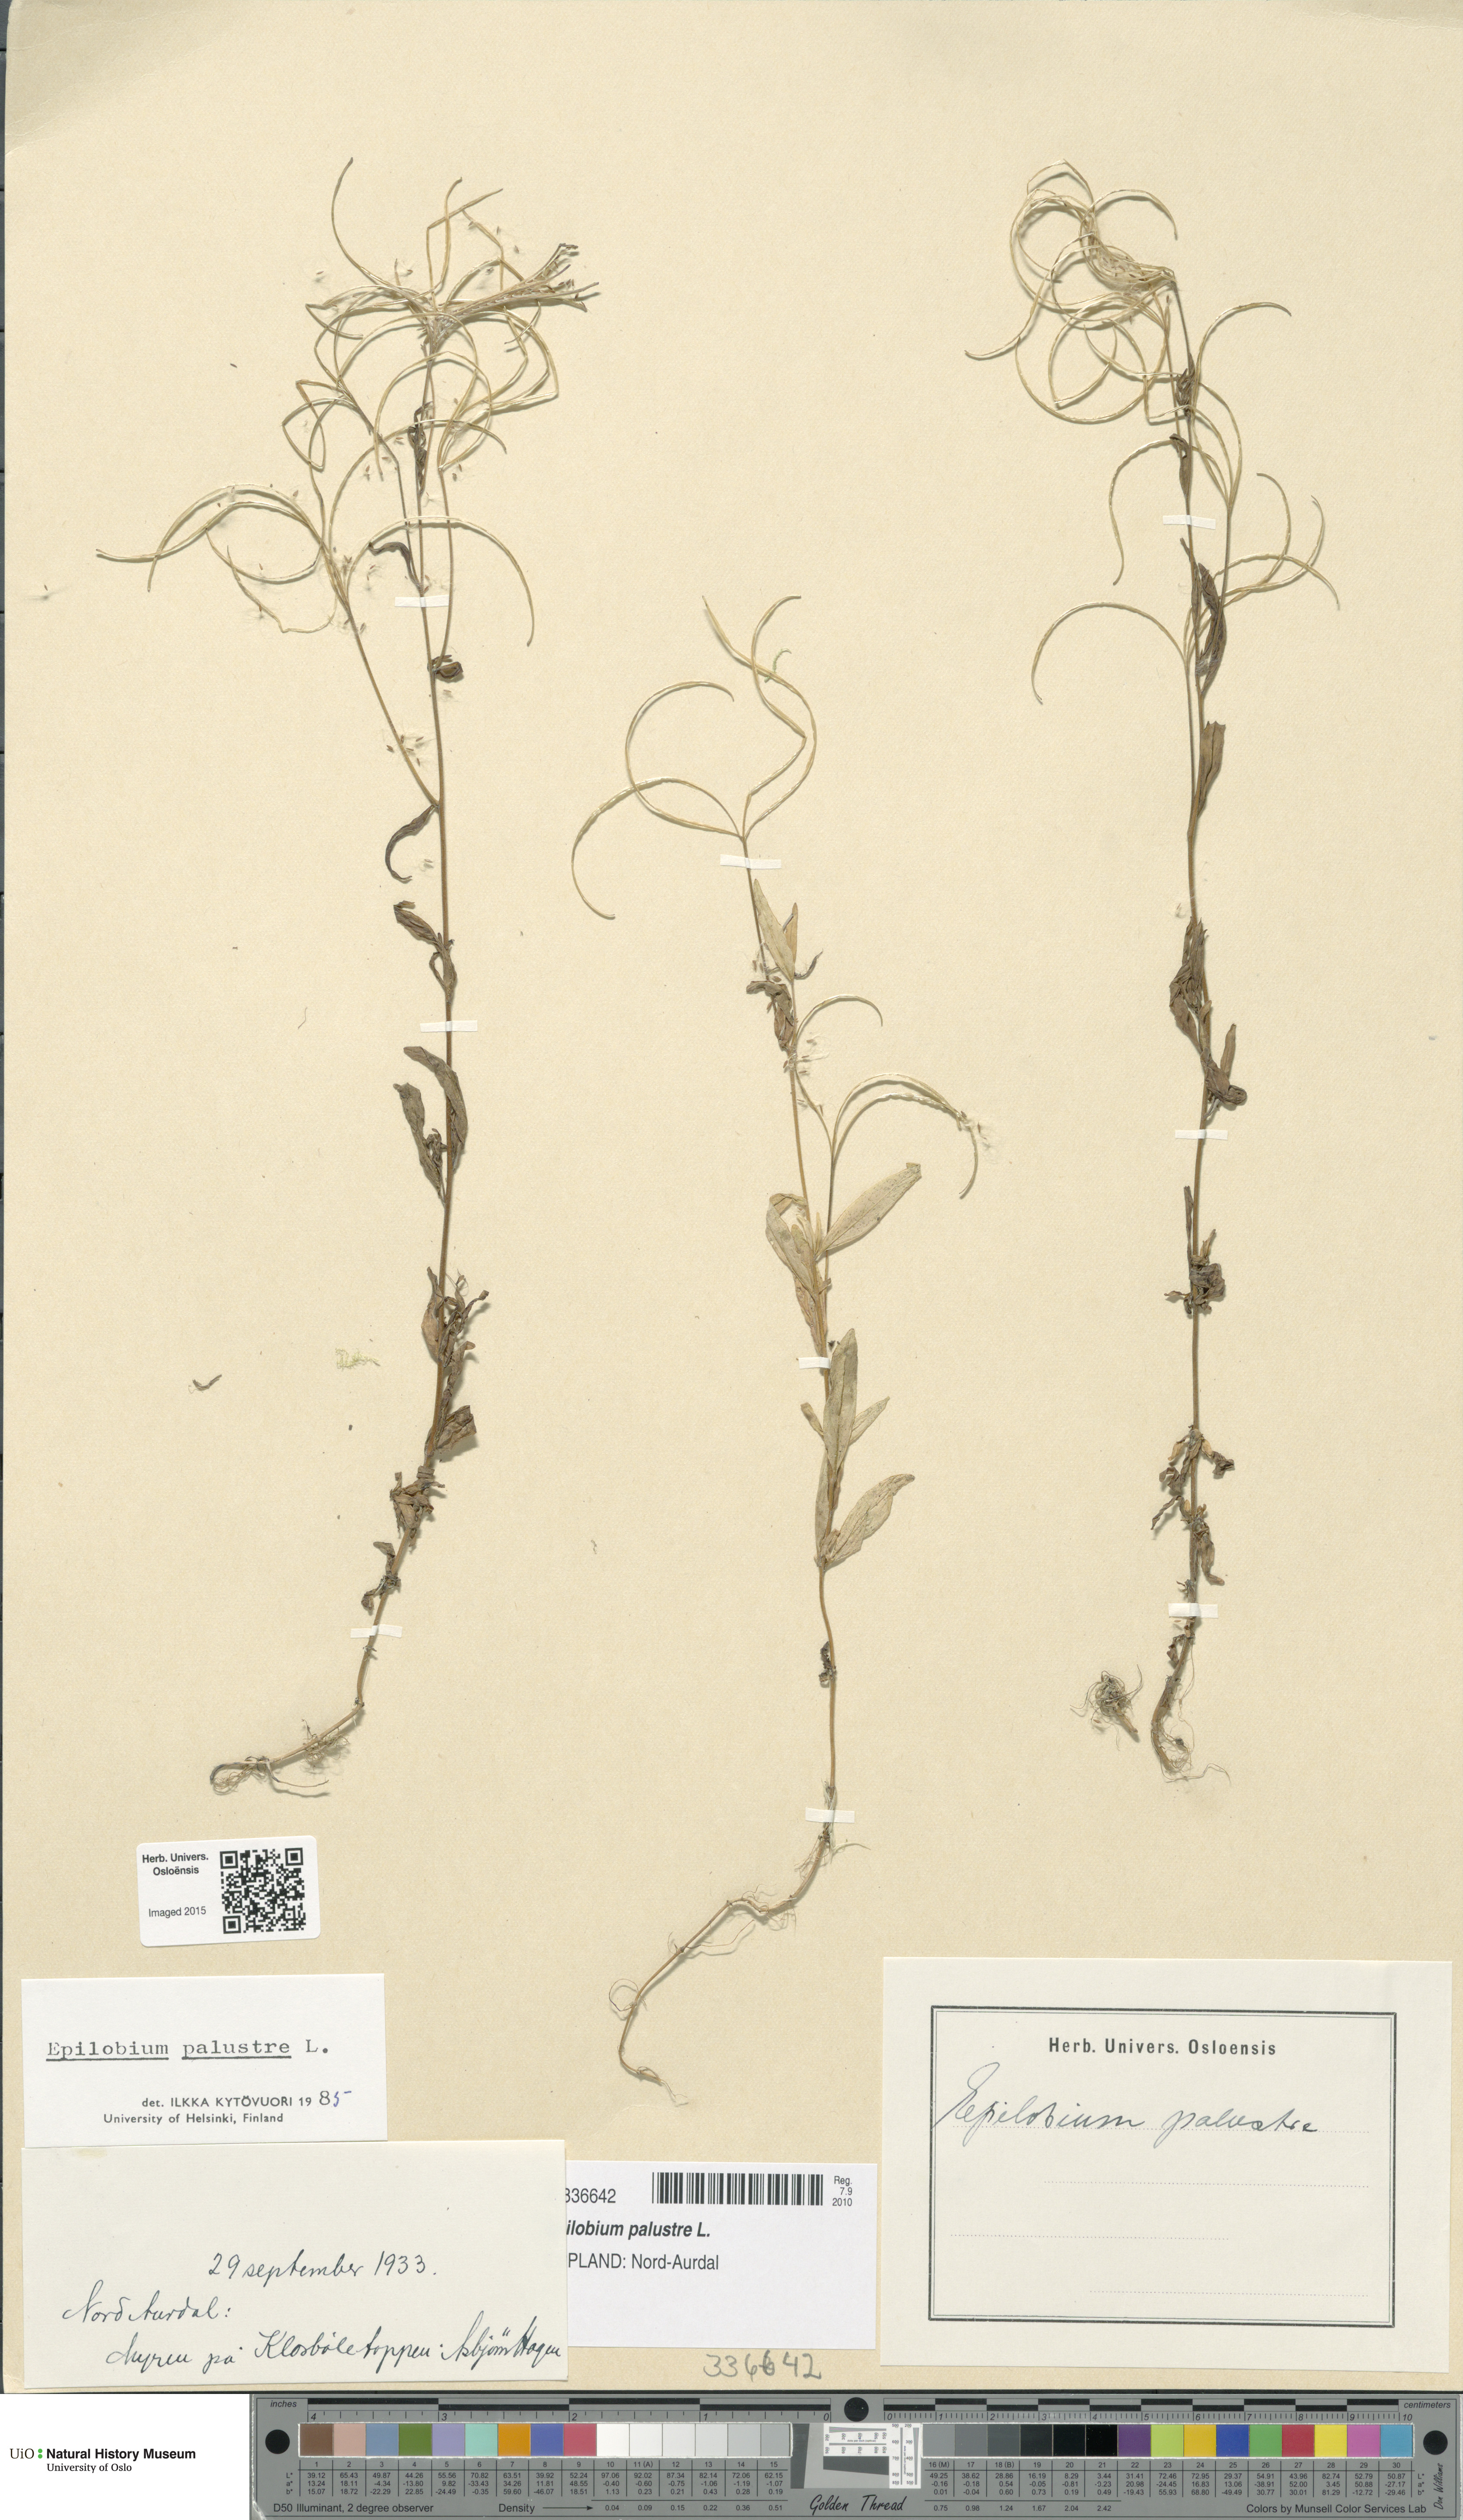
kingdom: Plantae
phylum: Tracheophyta
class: Magnoliopsida
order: Myrtales
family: Onagraceae
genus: Epilobium
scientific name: Epilobium palustre
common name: Marsh willowherb
